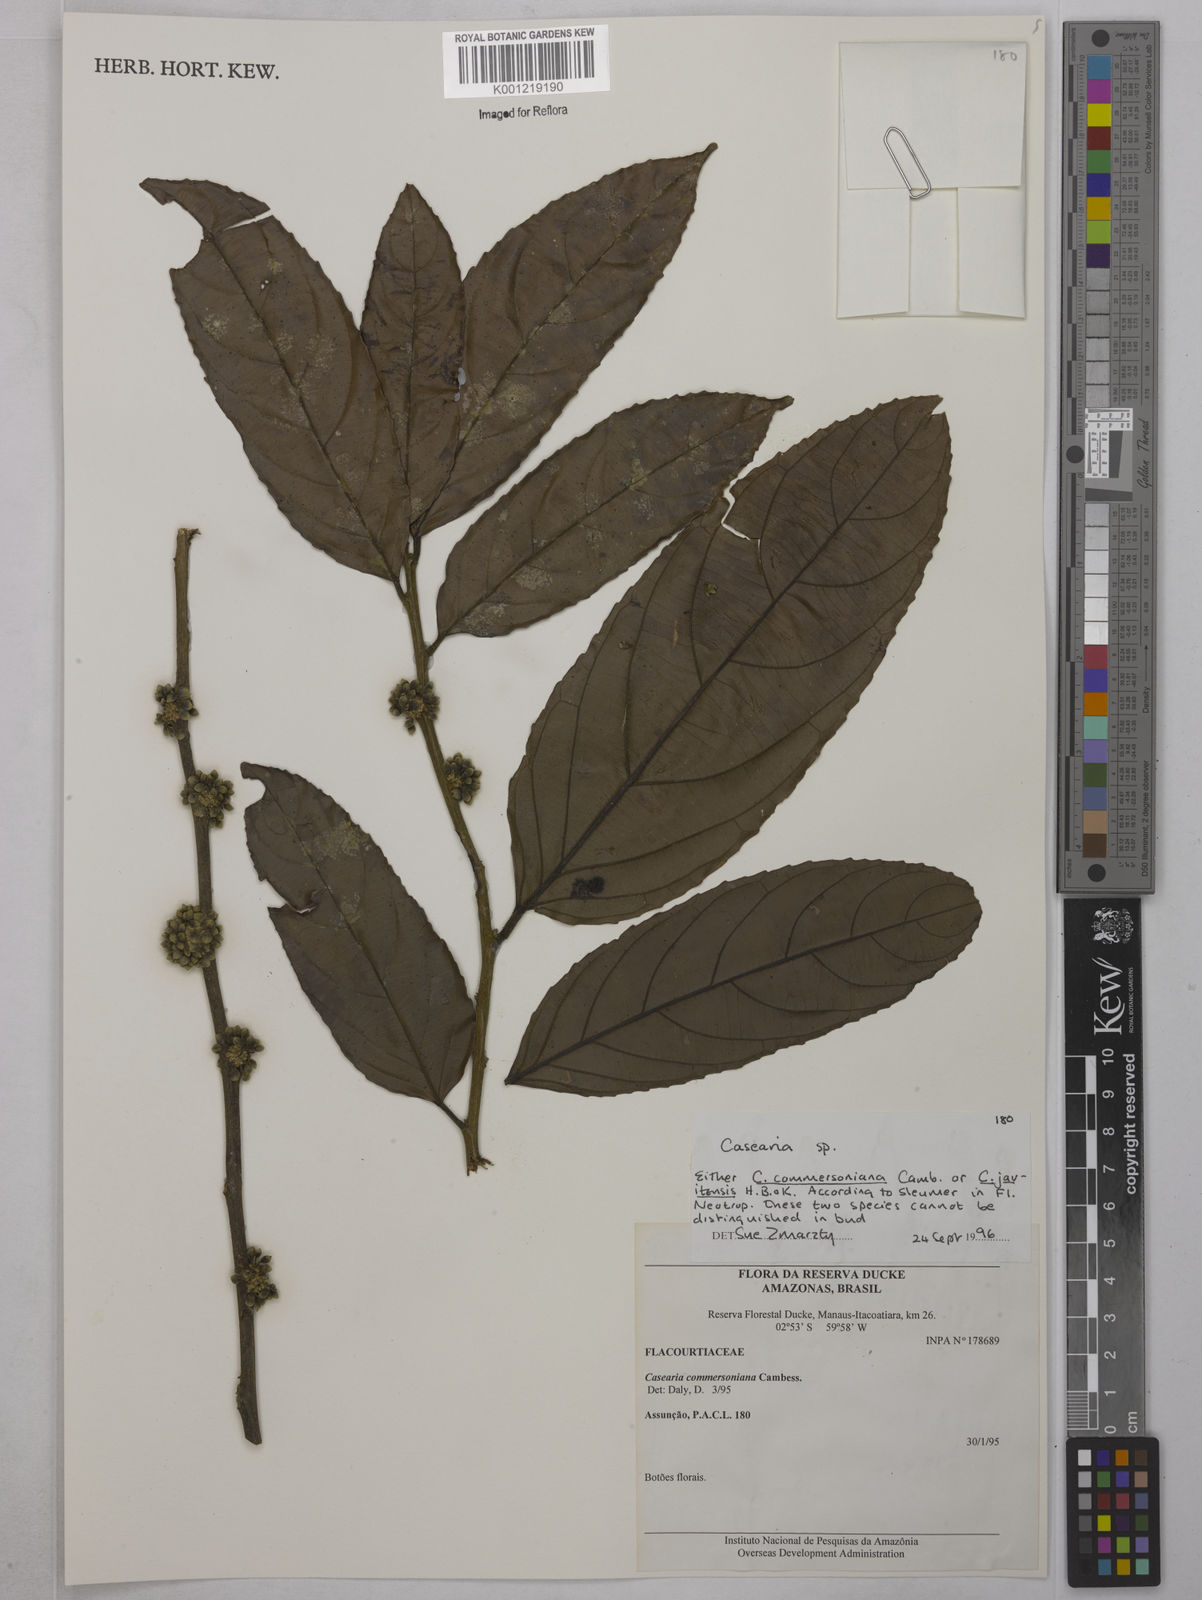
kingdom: Plantae
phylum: Tracheophyta
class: Magnoliopsida
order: Malpighiales
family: Salicaceae
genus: Piparea
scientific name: Piparea dentata
